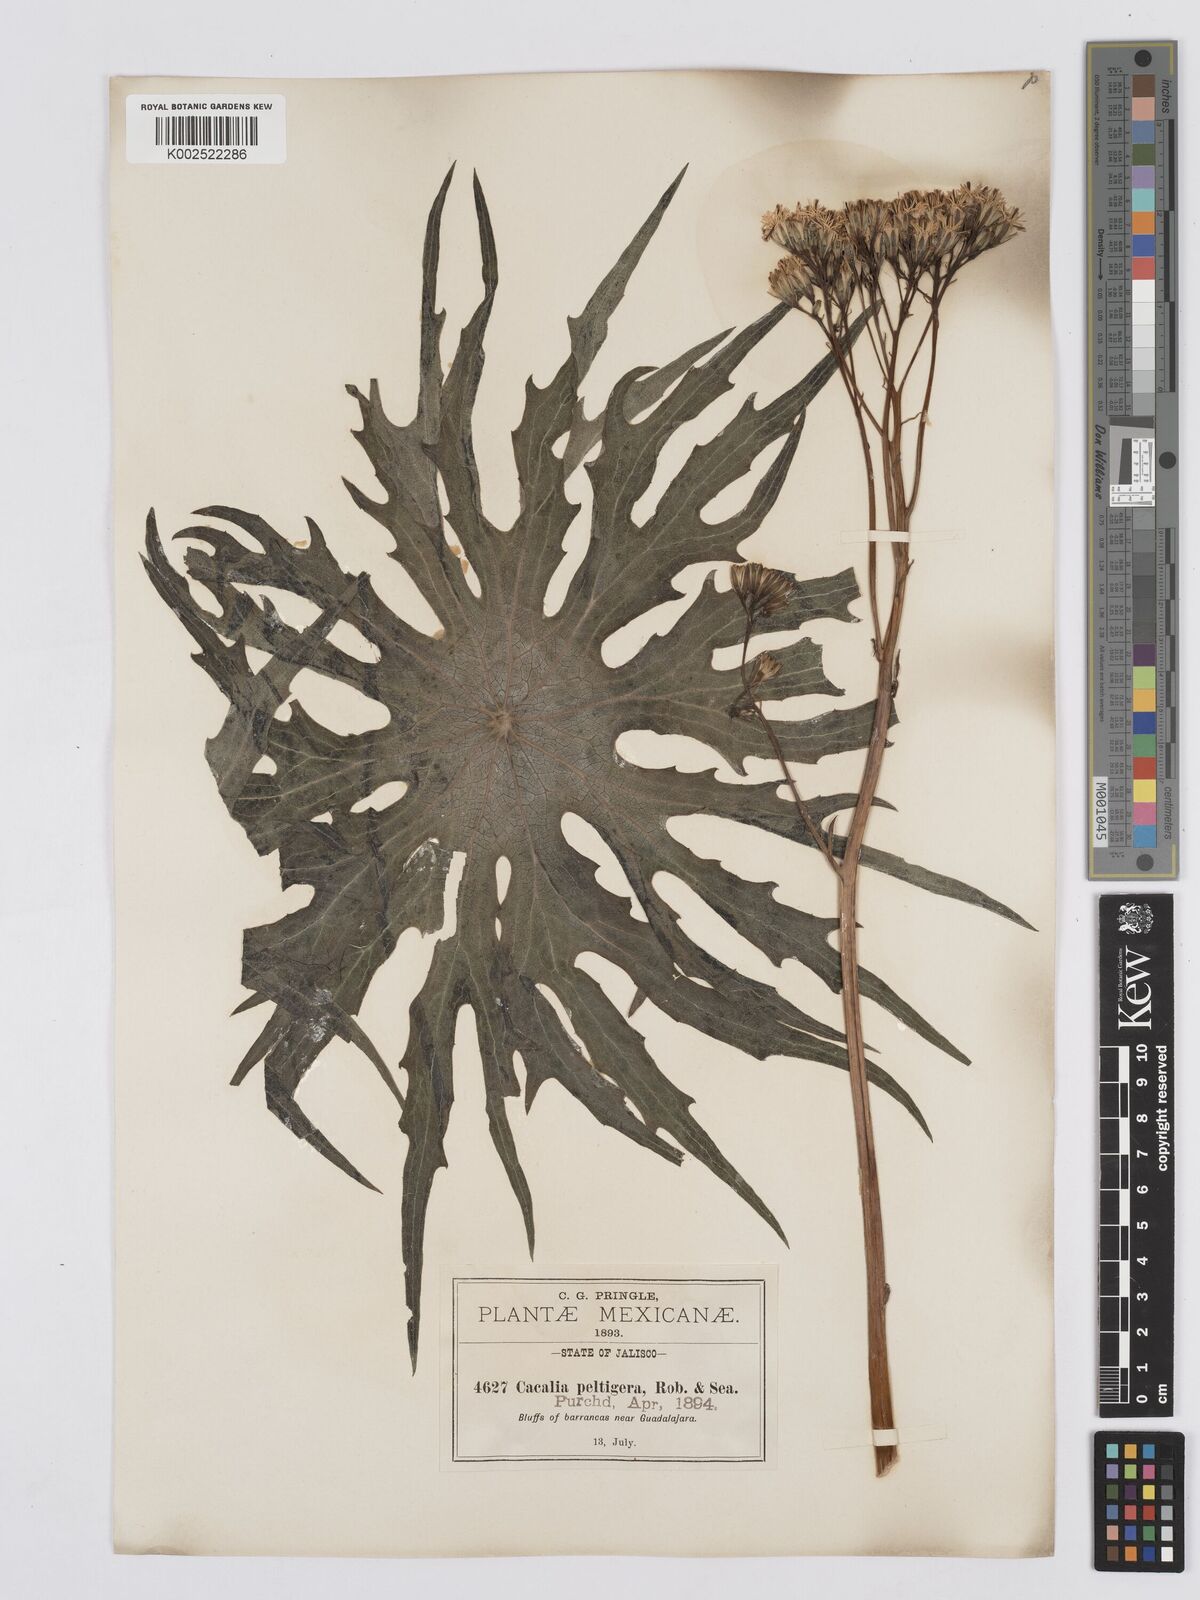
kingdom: Plantae
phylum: Tracheophyta
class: Magnoliopsida
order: Asterales
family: Asteraceae
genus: Psacalium
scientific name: Psacalium peltigerum
